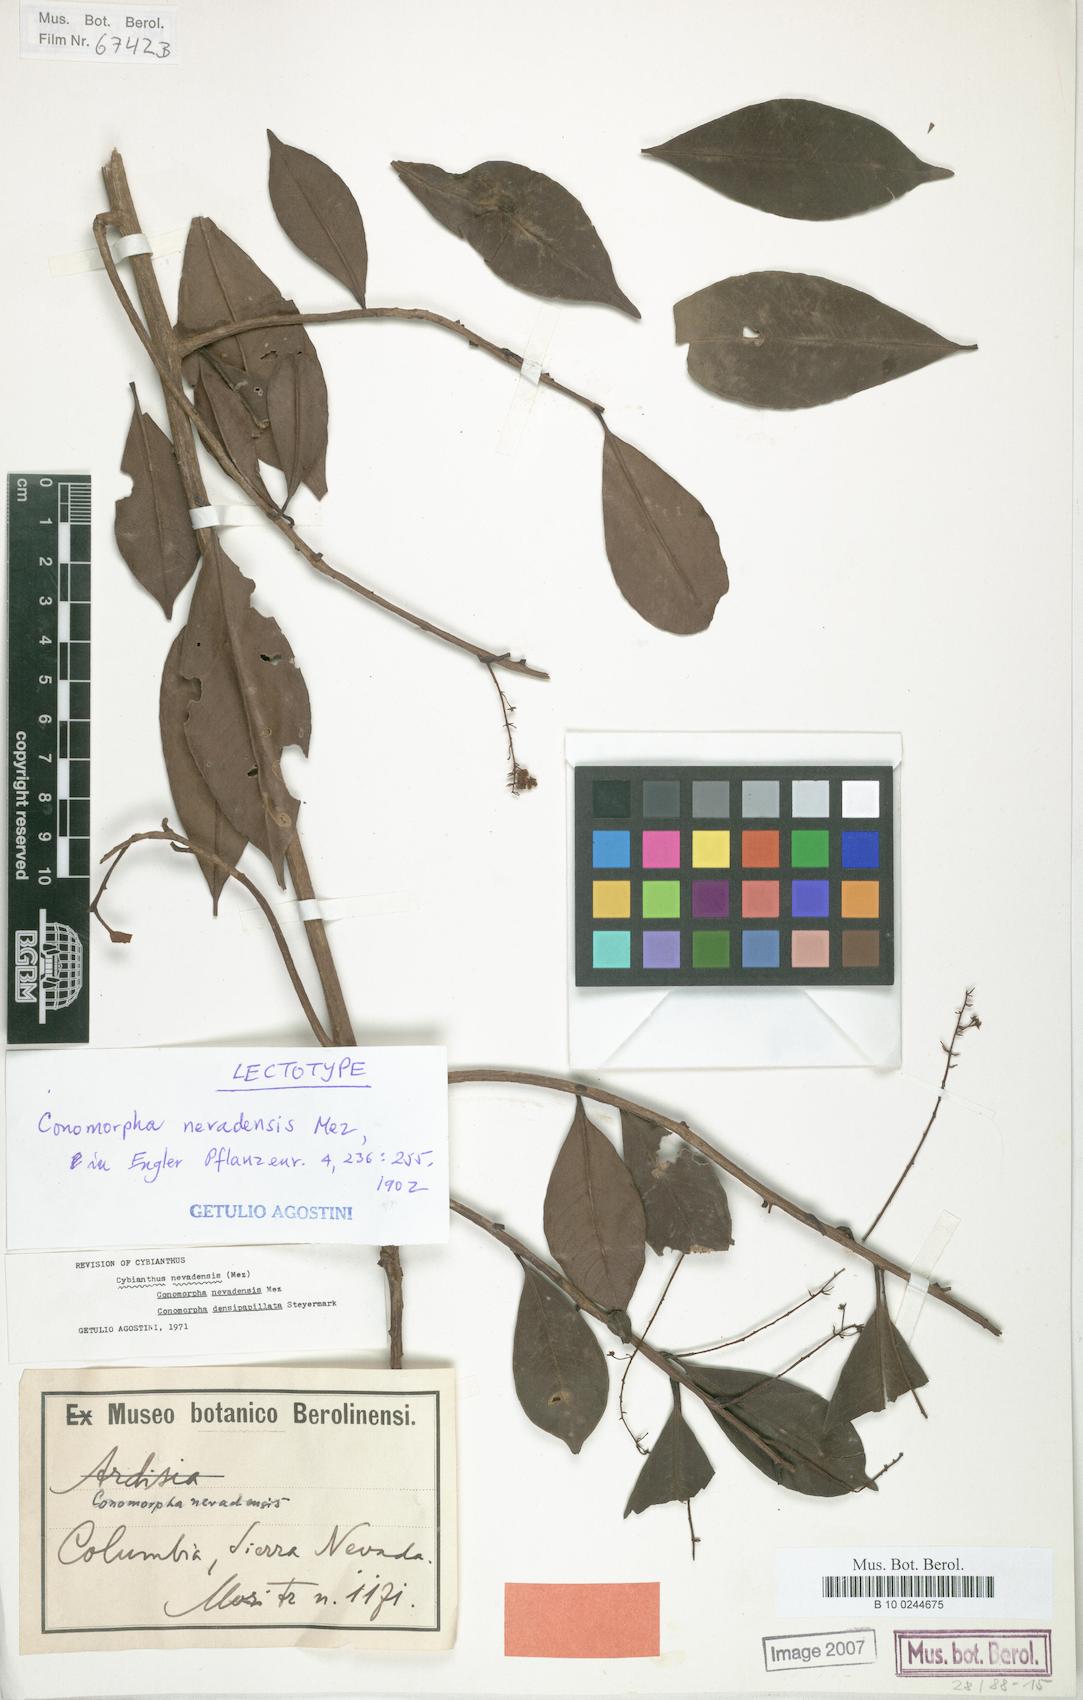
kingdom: Plantae
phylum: Tracheophyta
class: Magnoliopsida
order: Ericales
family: Primulaceae
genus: Cybianthus
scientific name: Cybianthus nevadensis
